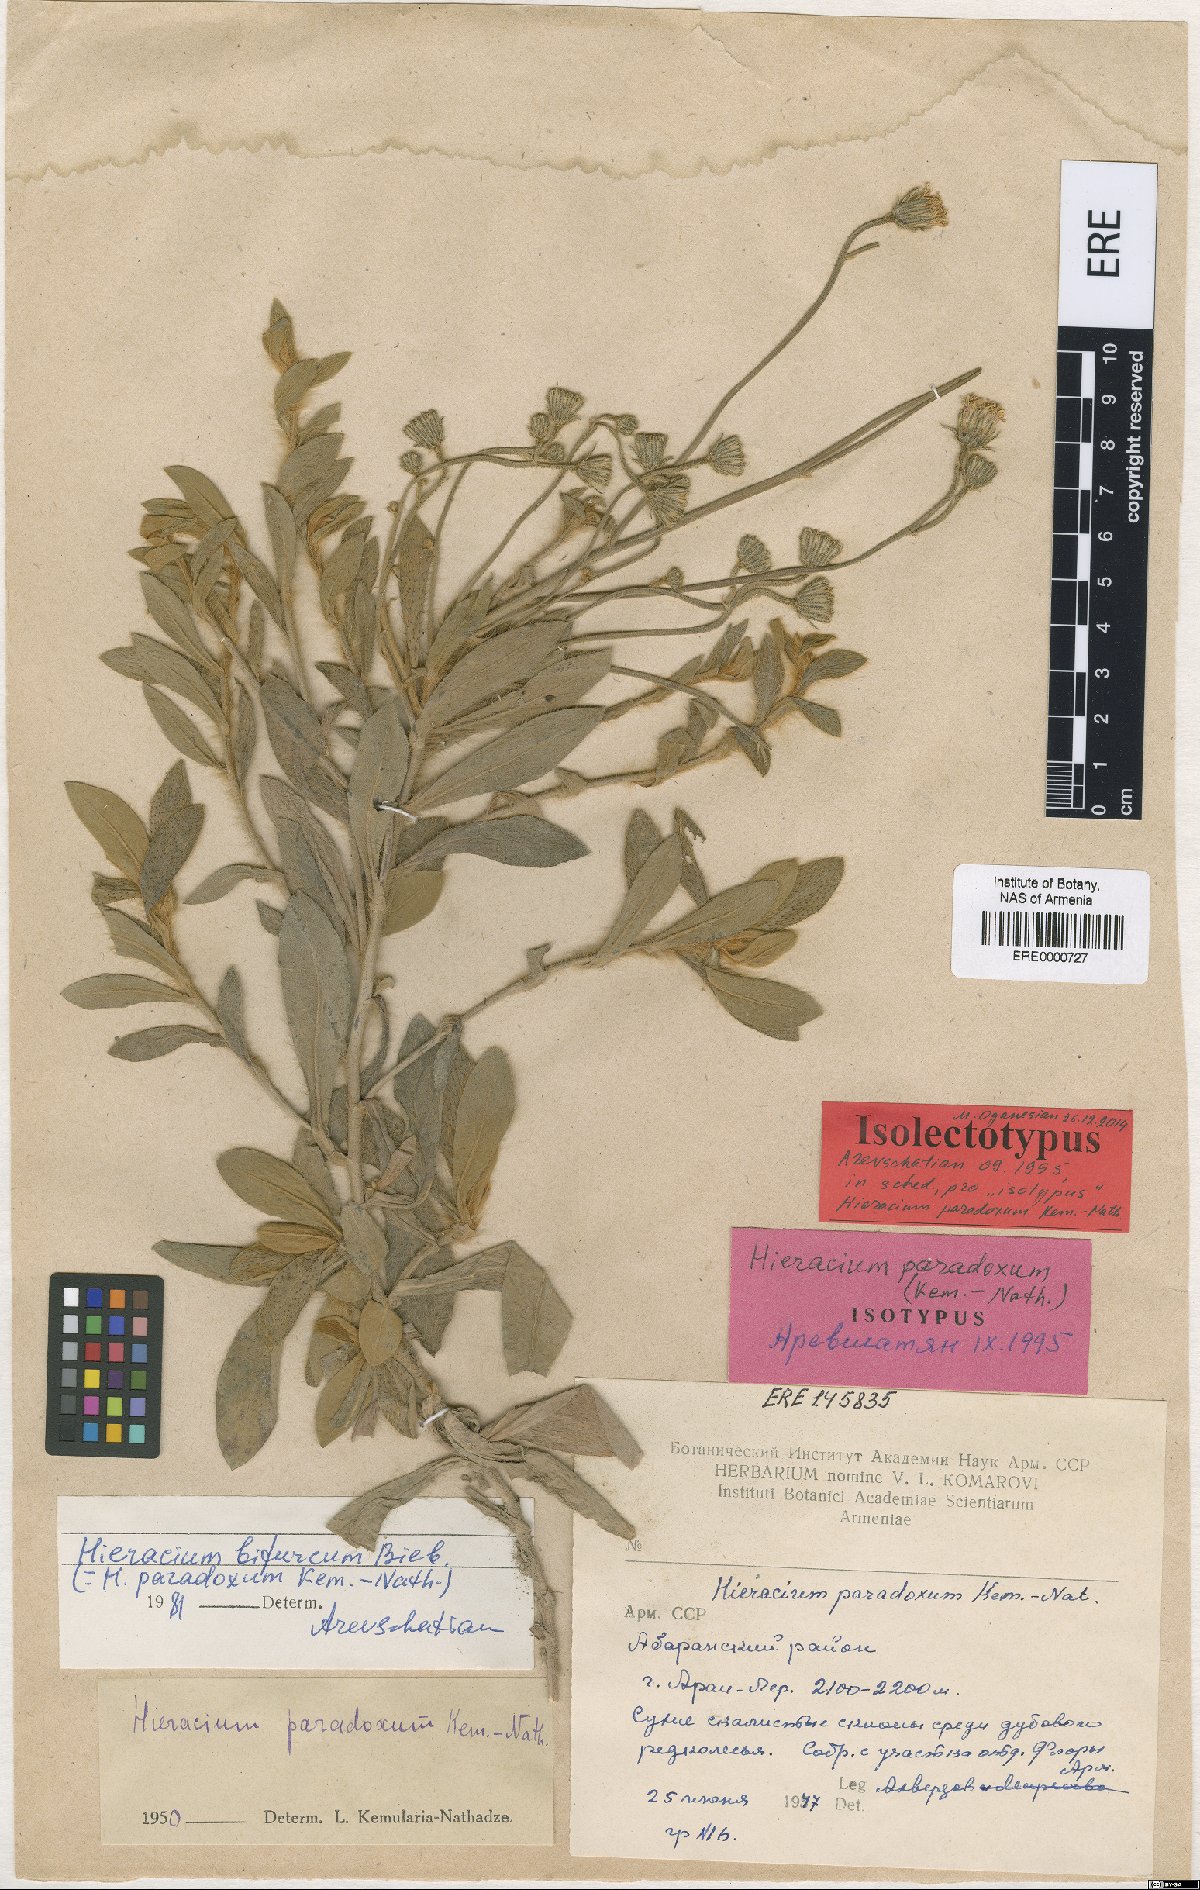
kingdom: Plantae
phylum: Tracheophyta
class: Magnoliopsida
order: Asterales
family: Asteraceae
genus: Pilosella
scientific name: Pilosella officinarum
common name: Mouse-ear hawkweed
